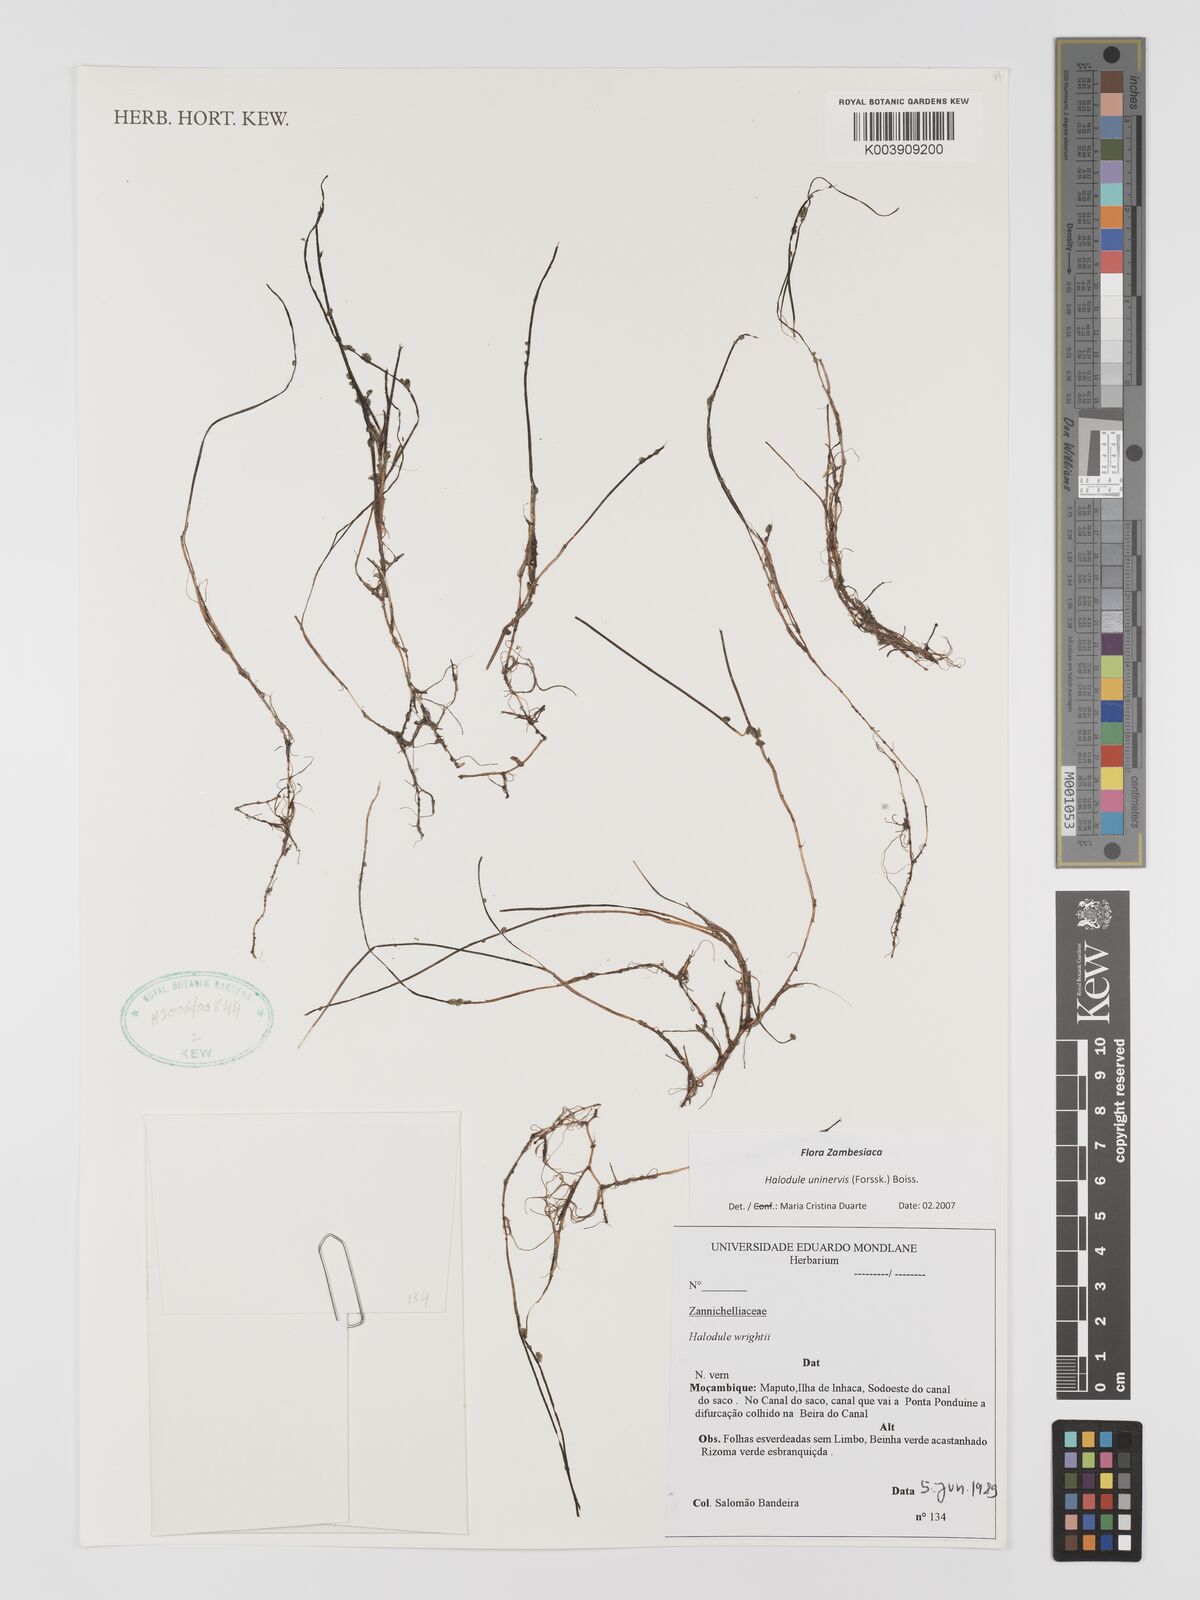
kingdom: Plantae
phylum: Tracheophyta
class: Liliopsida
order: Alismatales
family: Cymodoceaceae
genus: Halodule
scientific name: Halodule uninervis
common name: Narrowleaf seagrass
